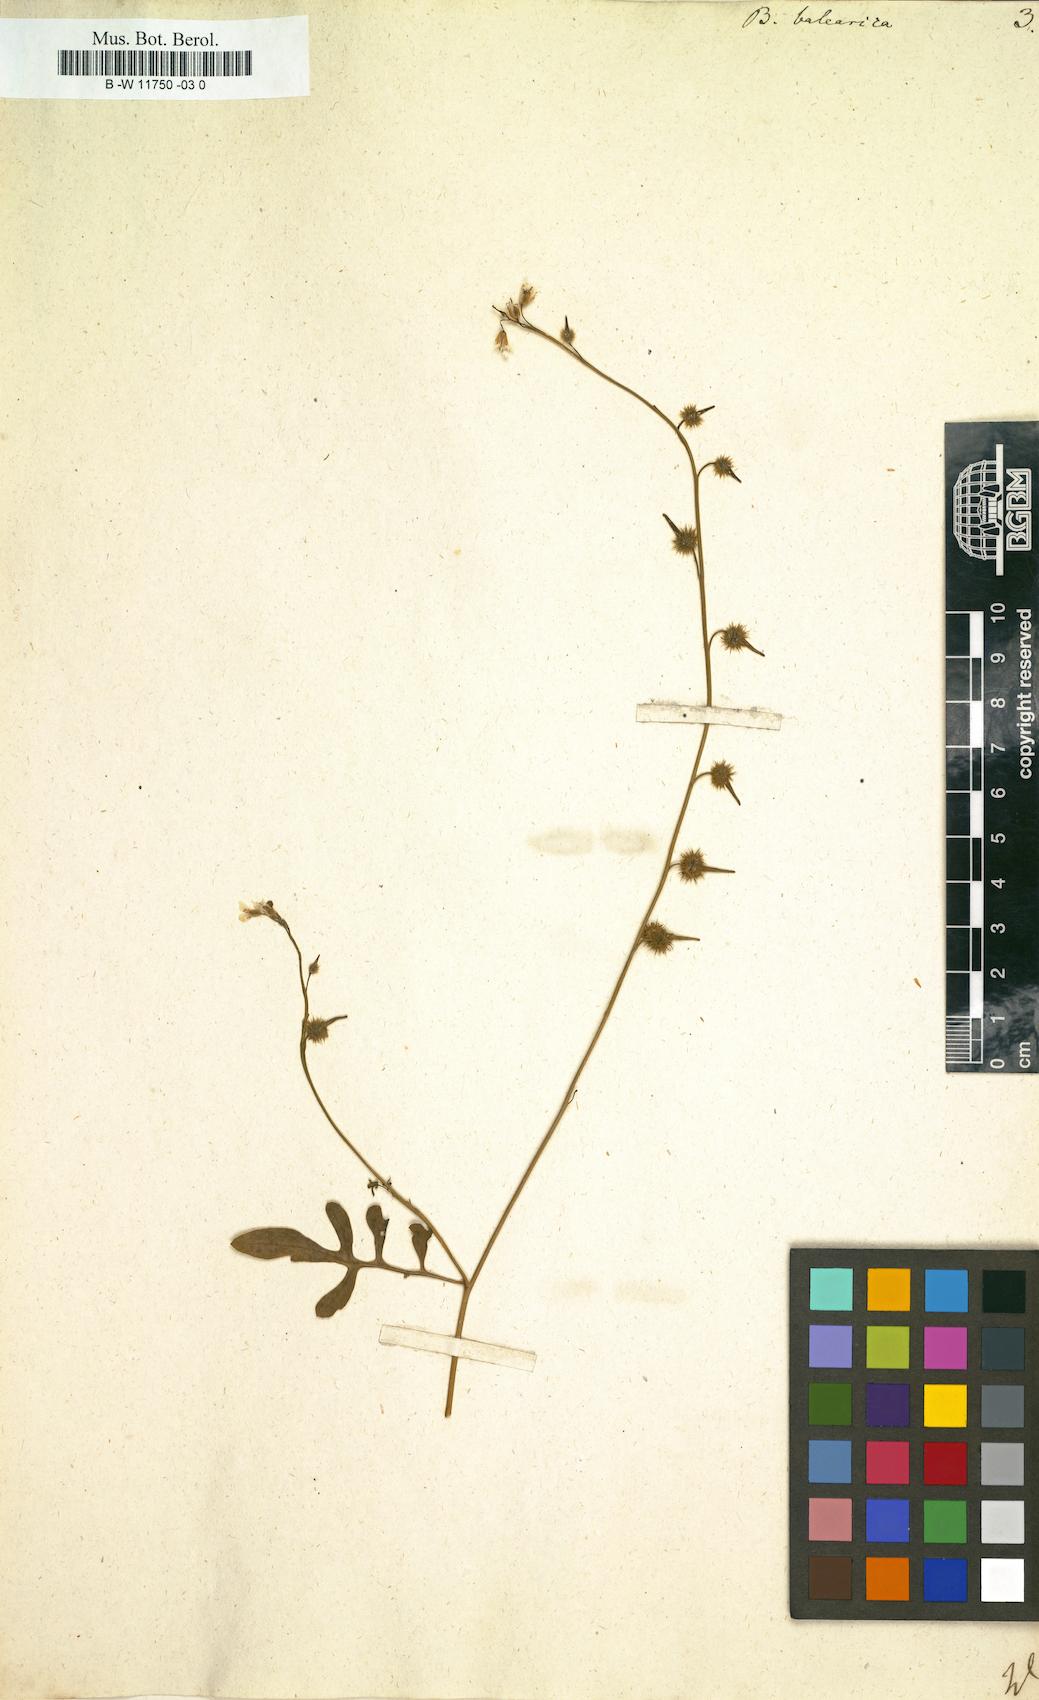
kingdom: Plantae
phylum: Tracheophyta
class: Magnoliopsida
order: Brassicales
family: Brassicaceae
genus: Succowia
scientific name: Succowia balearica
